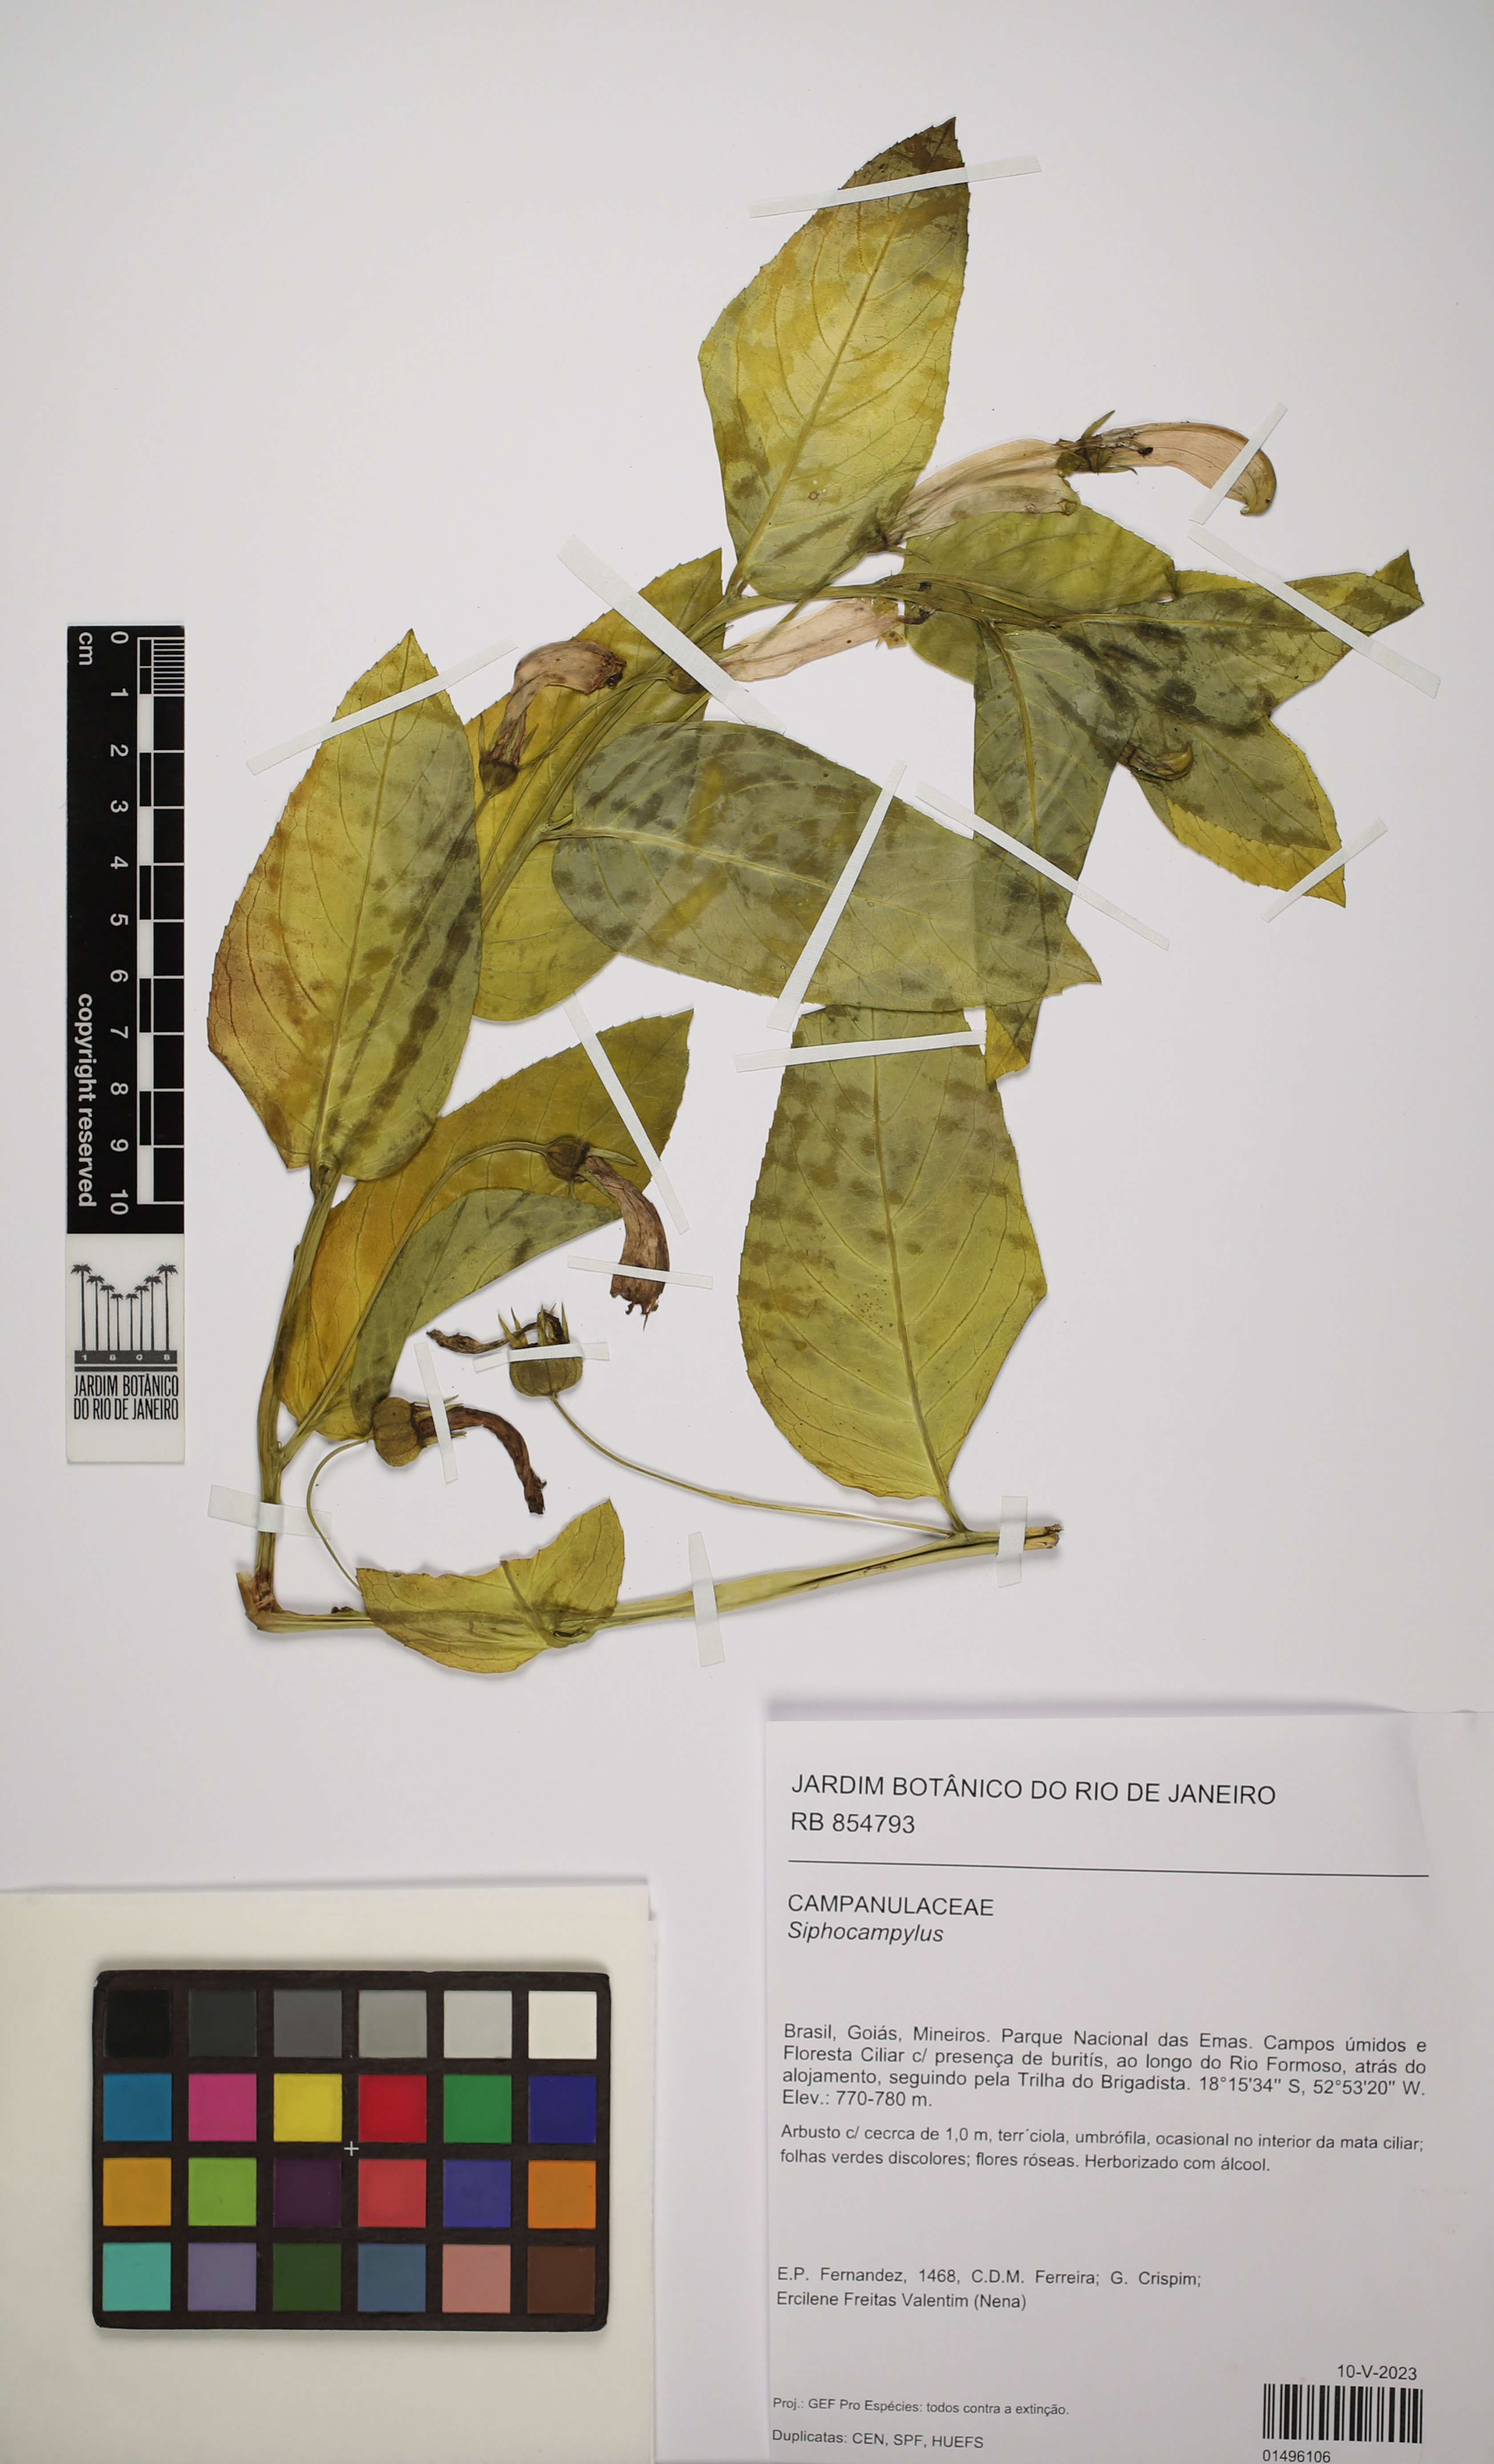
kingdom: Plantae
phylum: Tracheophyta
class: Magnoliopsida
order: Asterales
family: Campanulaceae
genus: Siphocampylus
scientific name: Siphocampylus
